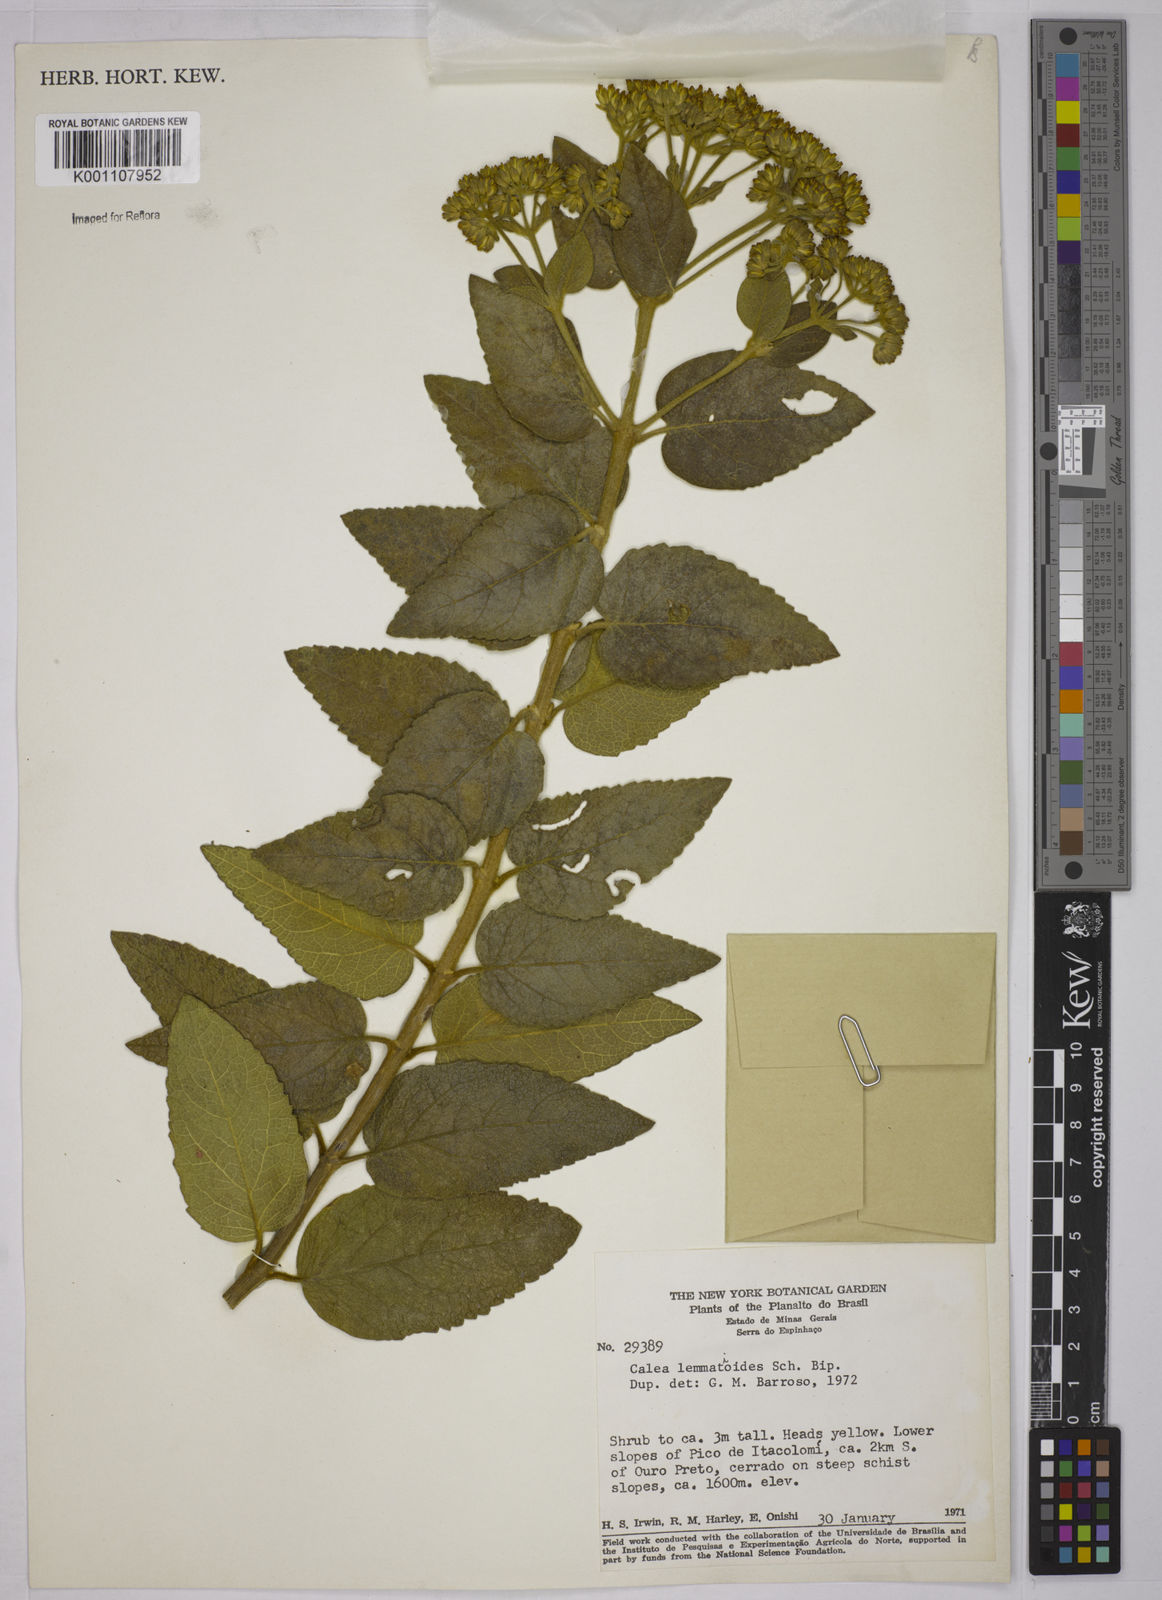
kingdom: Plantae
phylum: Tracheophyta
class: Magnoliopsida
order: Asterales
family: Asteraceae
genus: Calea
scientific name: Calea lemmatioides
